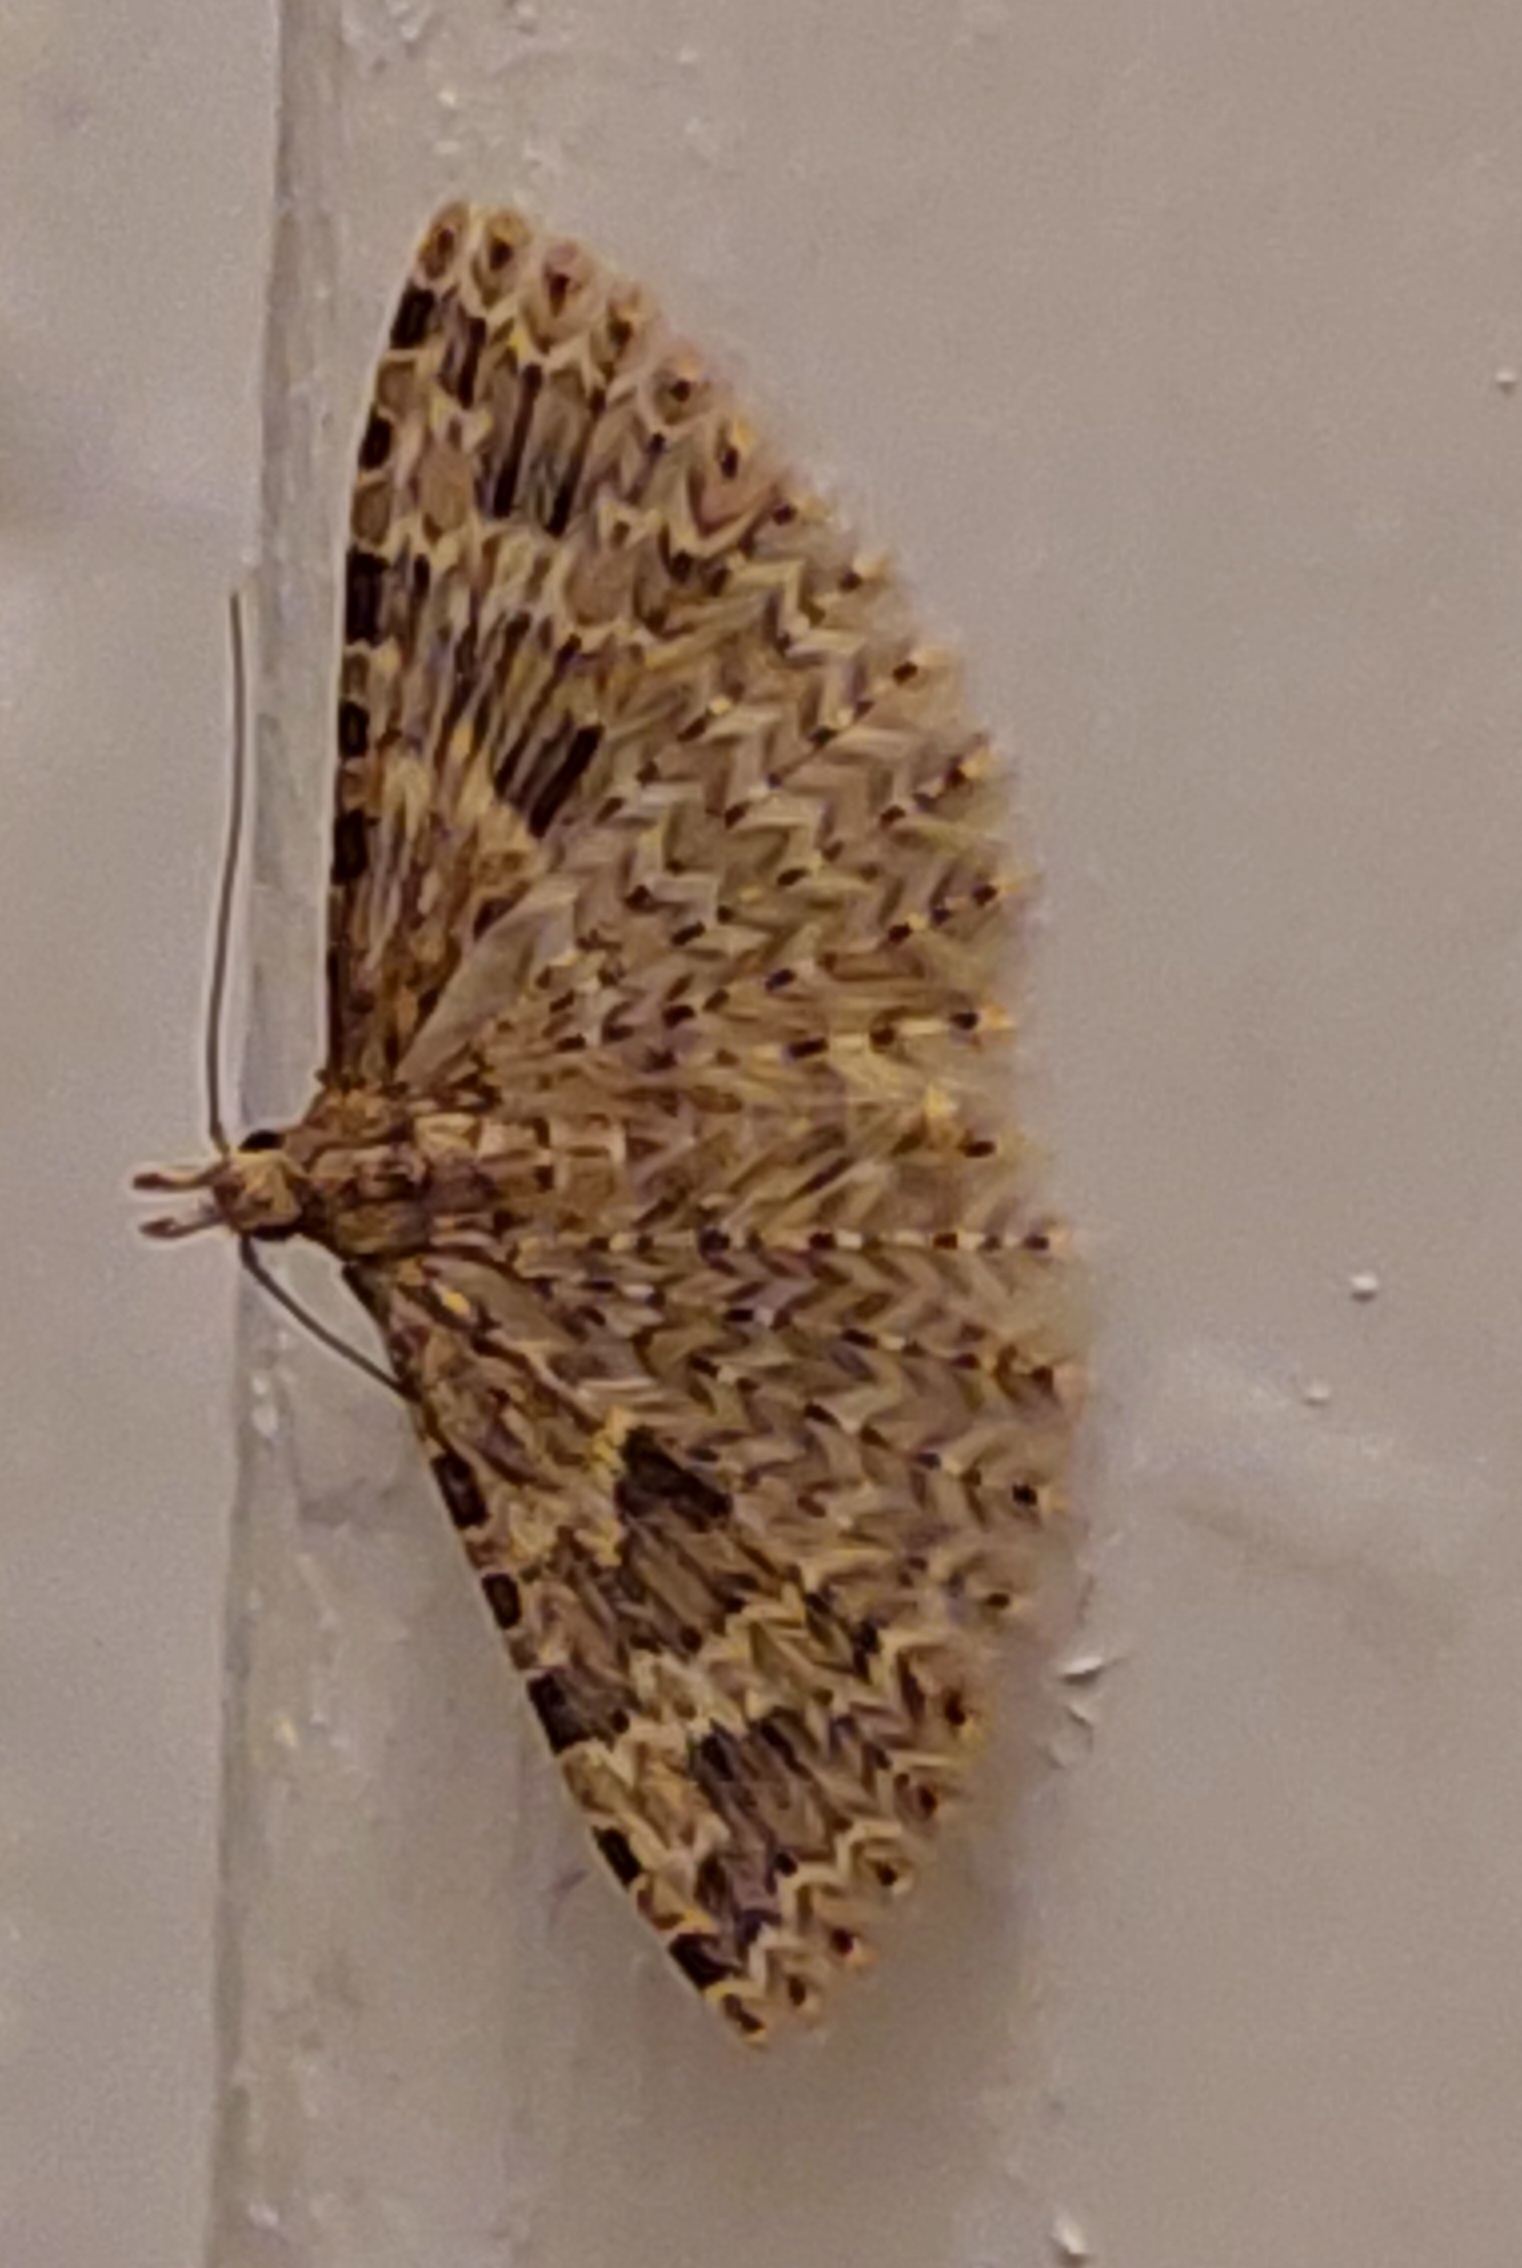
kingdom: Animalia
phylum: Arthropoda
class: Insecta
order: Lepidoptera
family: Alucitidae
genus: Alucita
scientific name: Alucita hexadactyla
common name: Kaprifoliefjermøl
